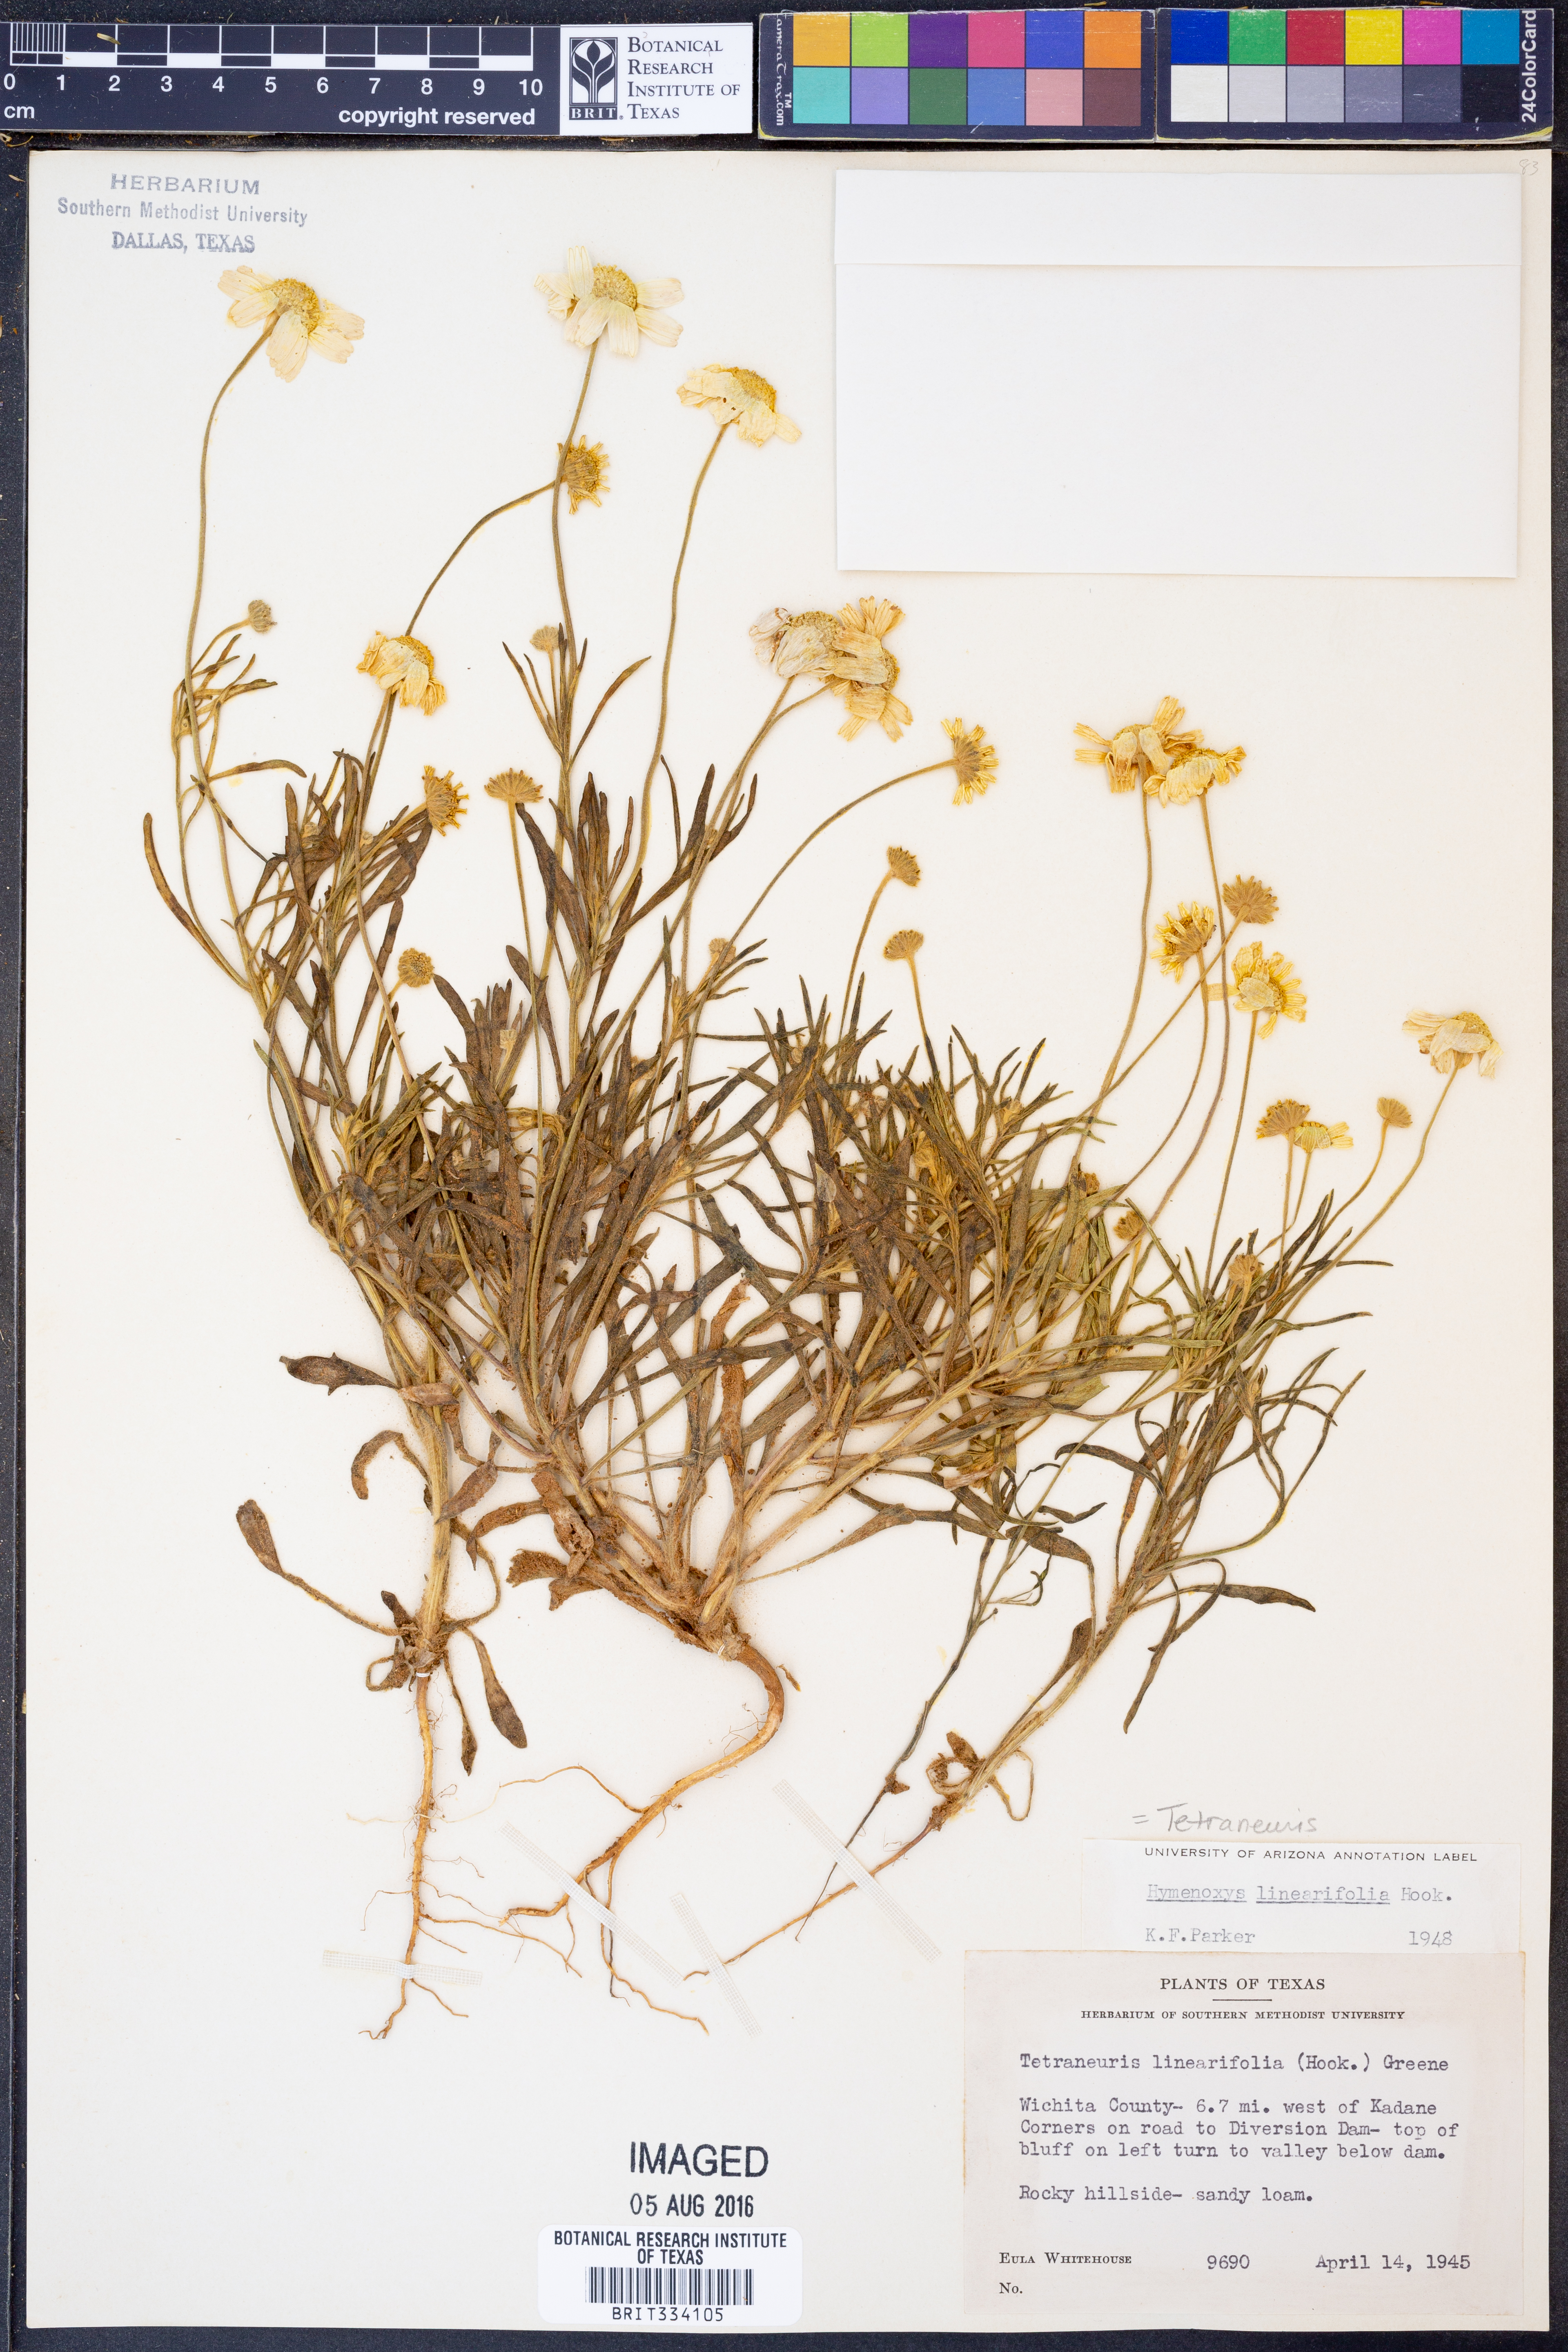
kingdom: Plantae
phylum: Tracheophyta
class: Magnoliopsida
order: Asterales
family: Asteraceae
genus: Tetraneuris
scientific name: Tetraneuris linearifolia
